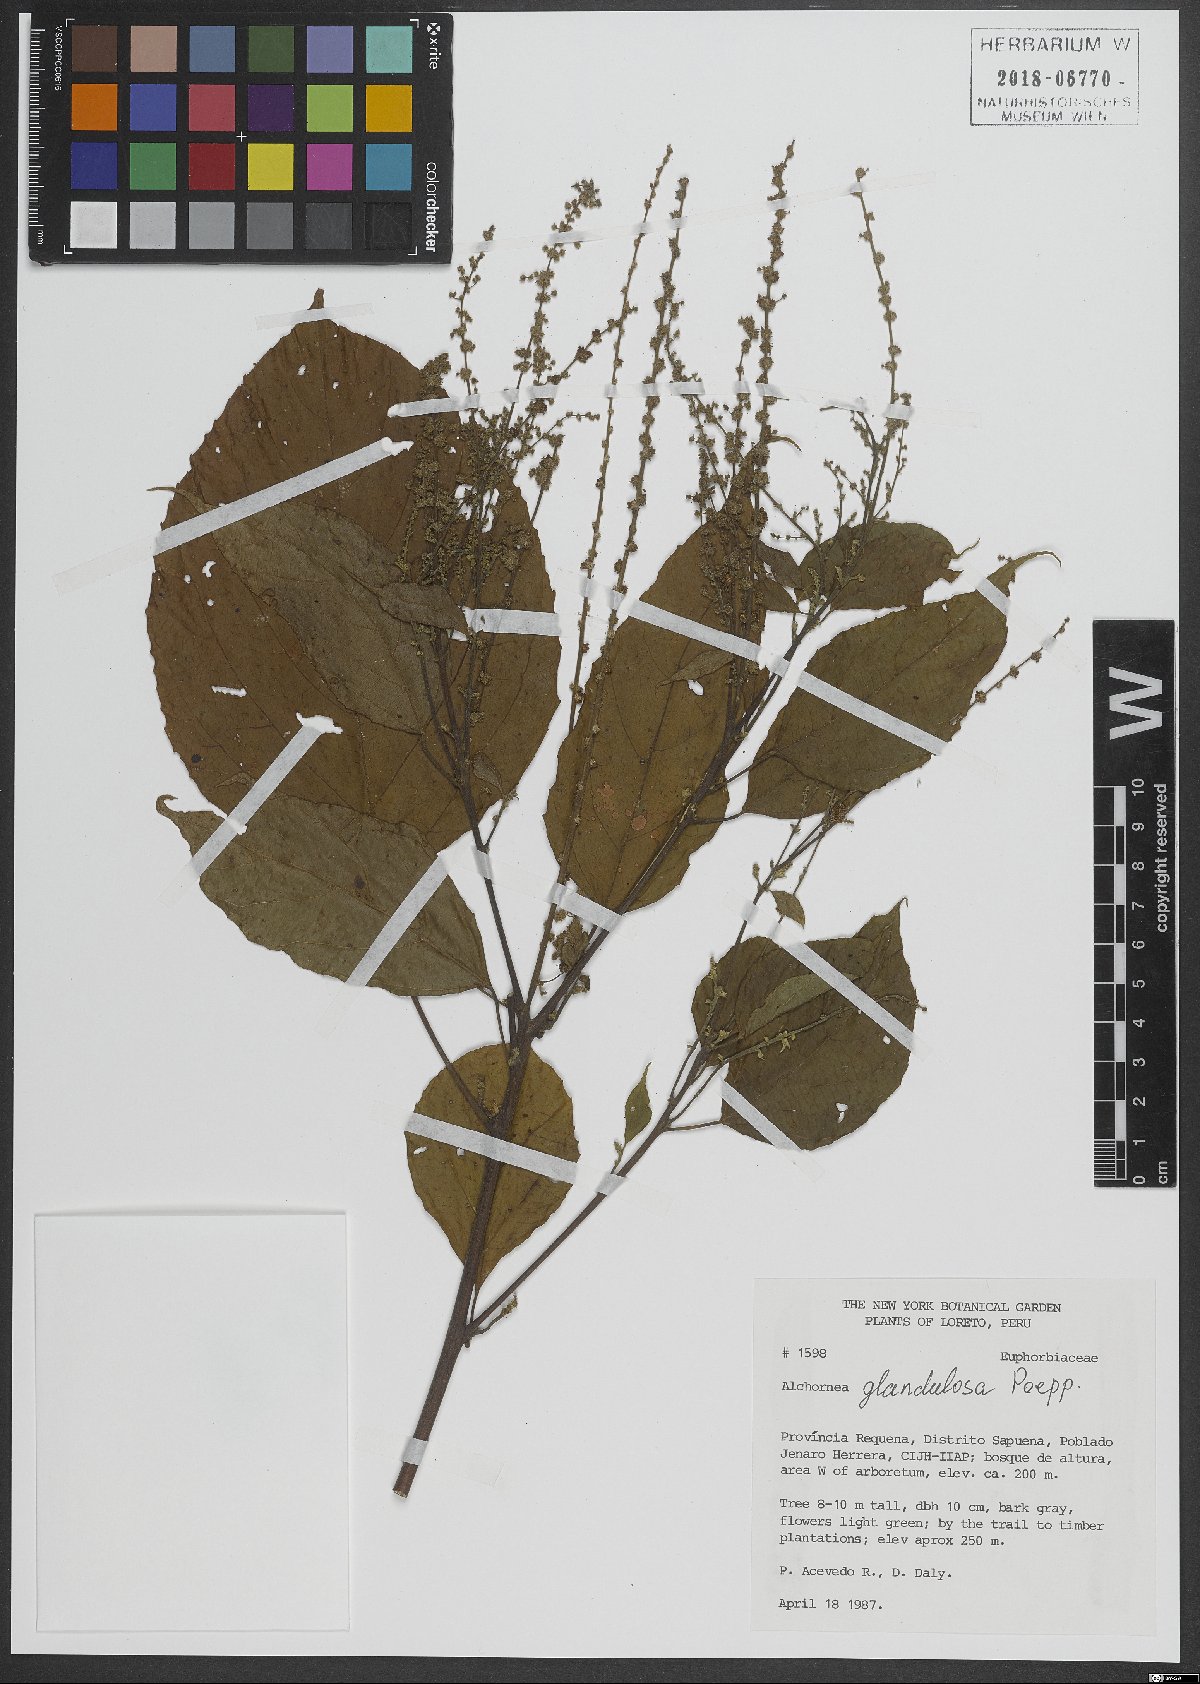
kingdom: Plantae
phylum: Tracheophyta
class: Magnoliopsida
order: Malpighiales
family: Euphorbiaceae
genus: Alchornea
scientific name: Alchornea glandulosa
